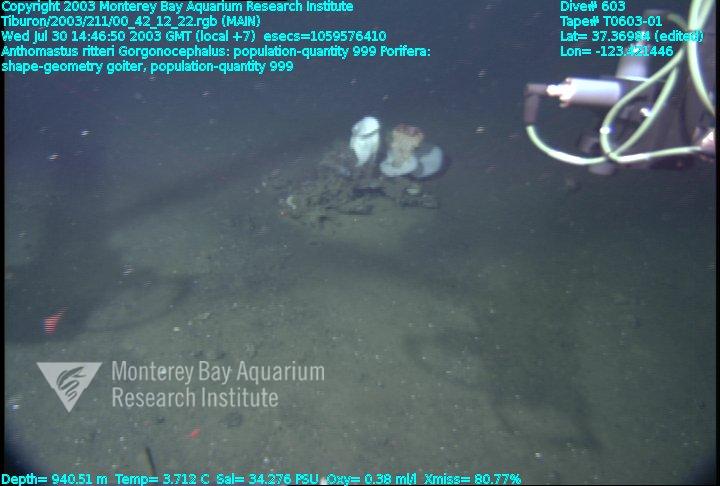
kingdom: Animalia
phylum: Porifera
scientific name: Porifera
